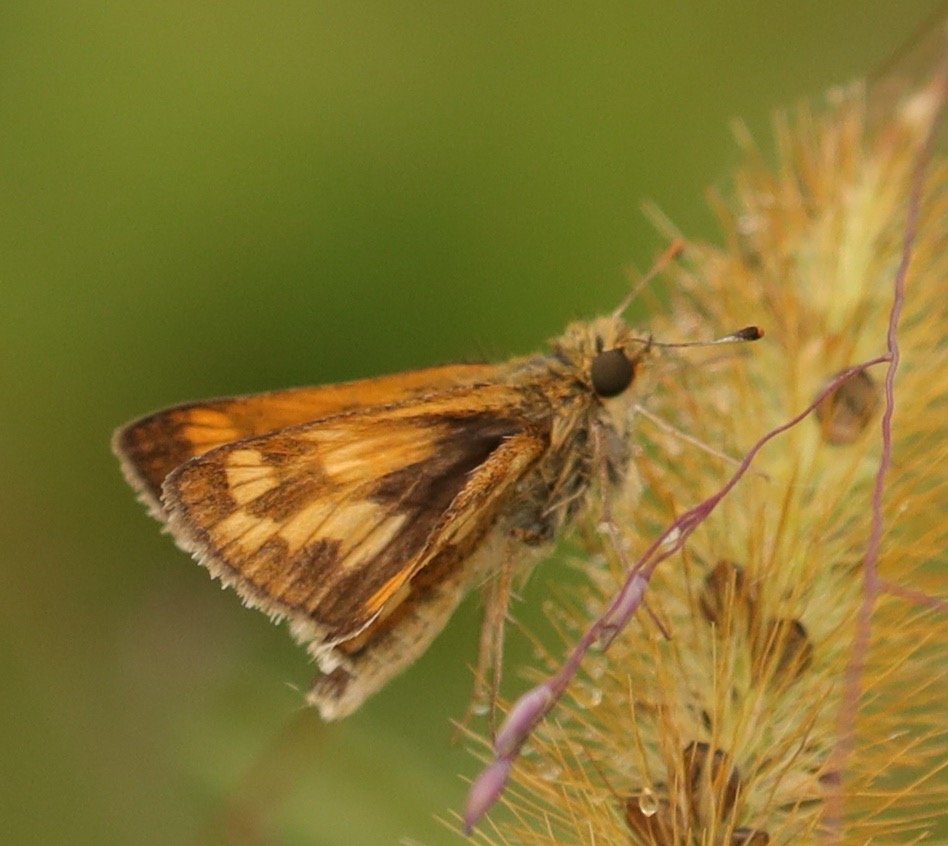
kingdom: Animalia
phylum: Arthropoda
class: Insecta
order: Lepidoptera
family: Hesperiidae
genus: Polites
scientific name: Polites coras
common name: Peck's Skipper
